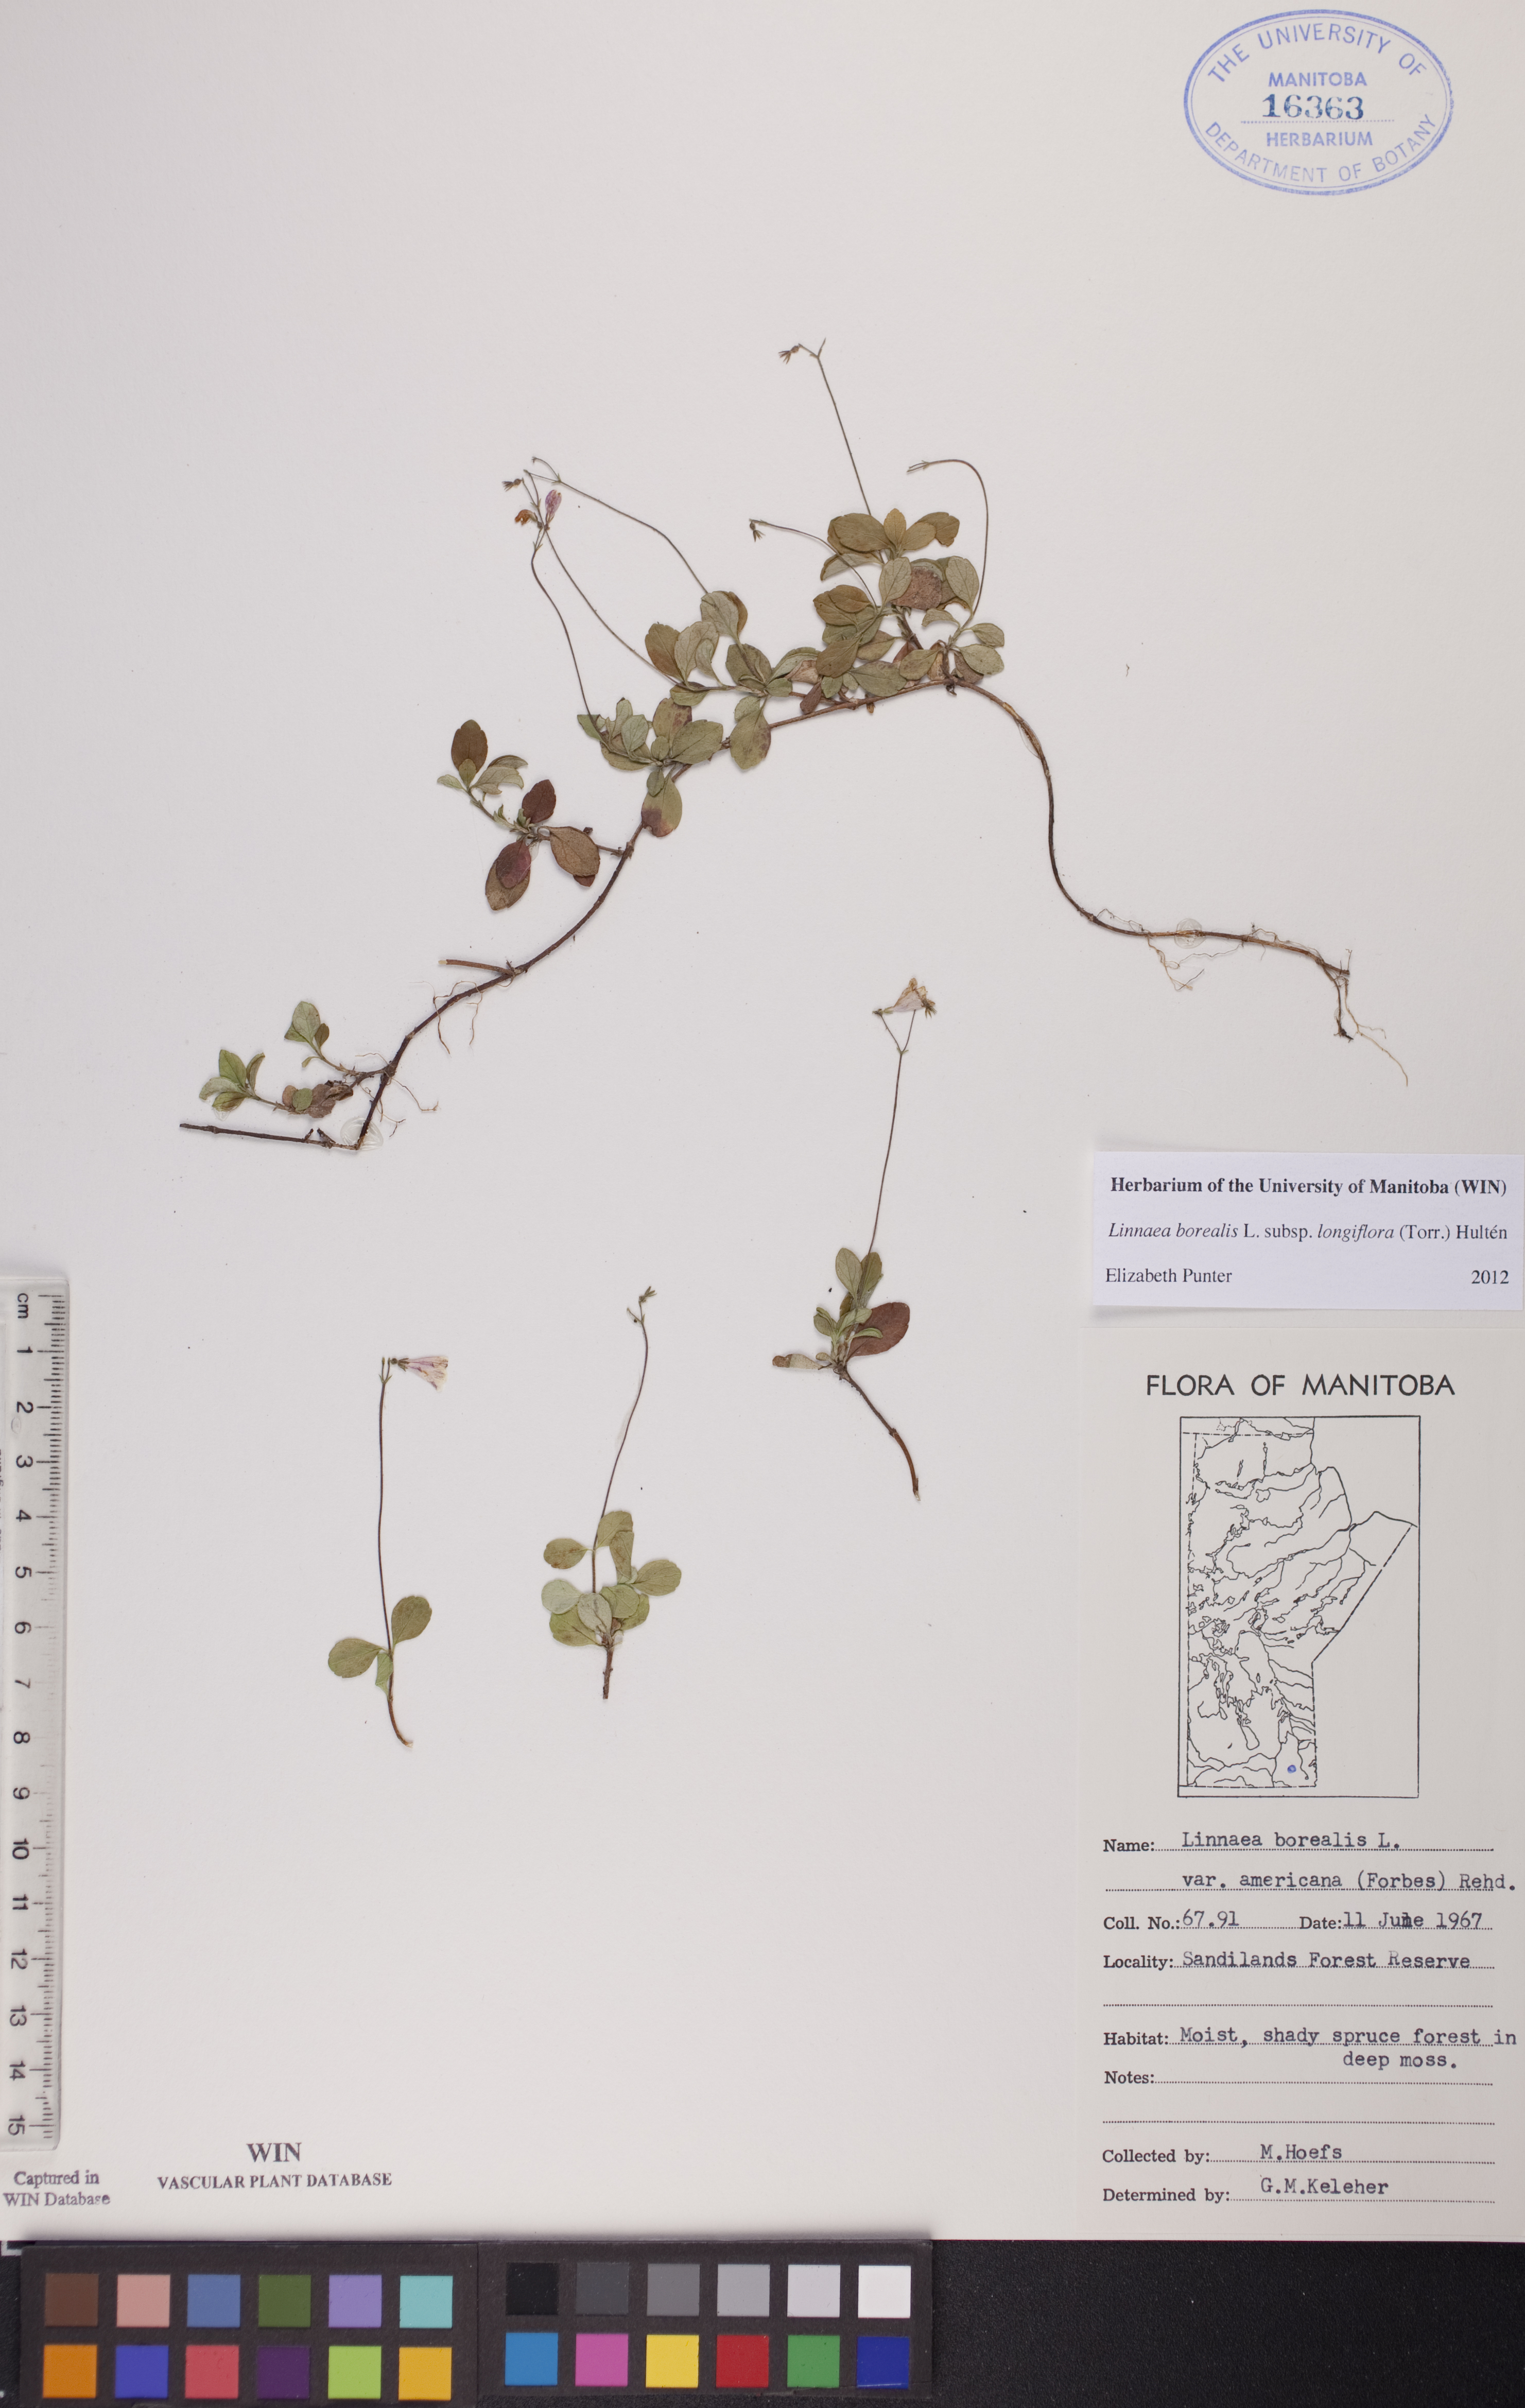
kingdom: Plantae
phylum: Tracheophyta
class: Magnoliopsida
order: Dipsacales
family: Caprifoliaceae
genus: Linnaea
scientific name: Linnaea borealis
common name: Twinflower
